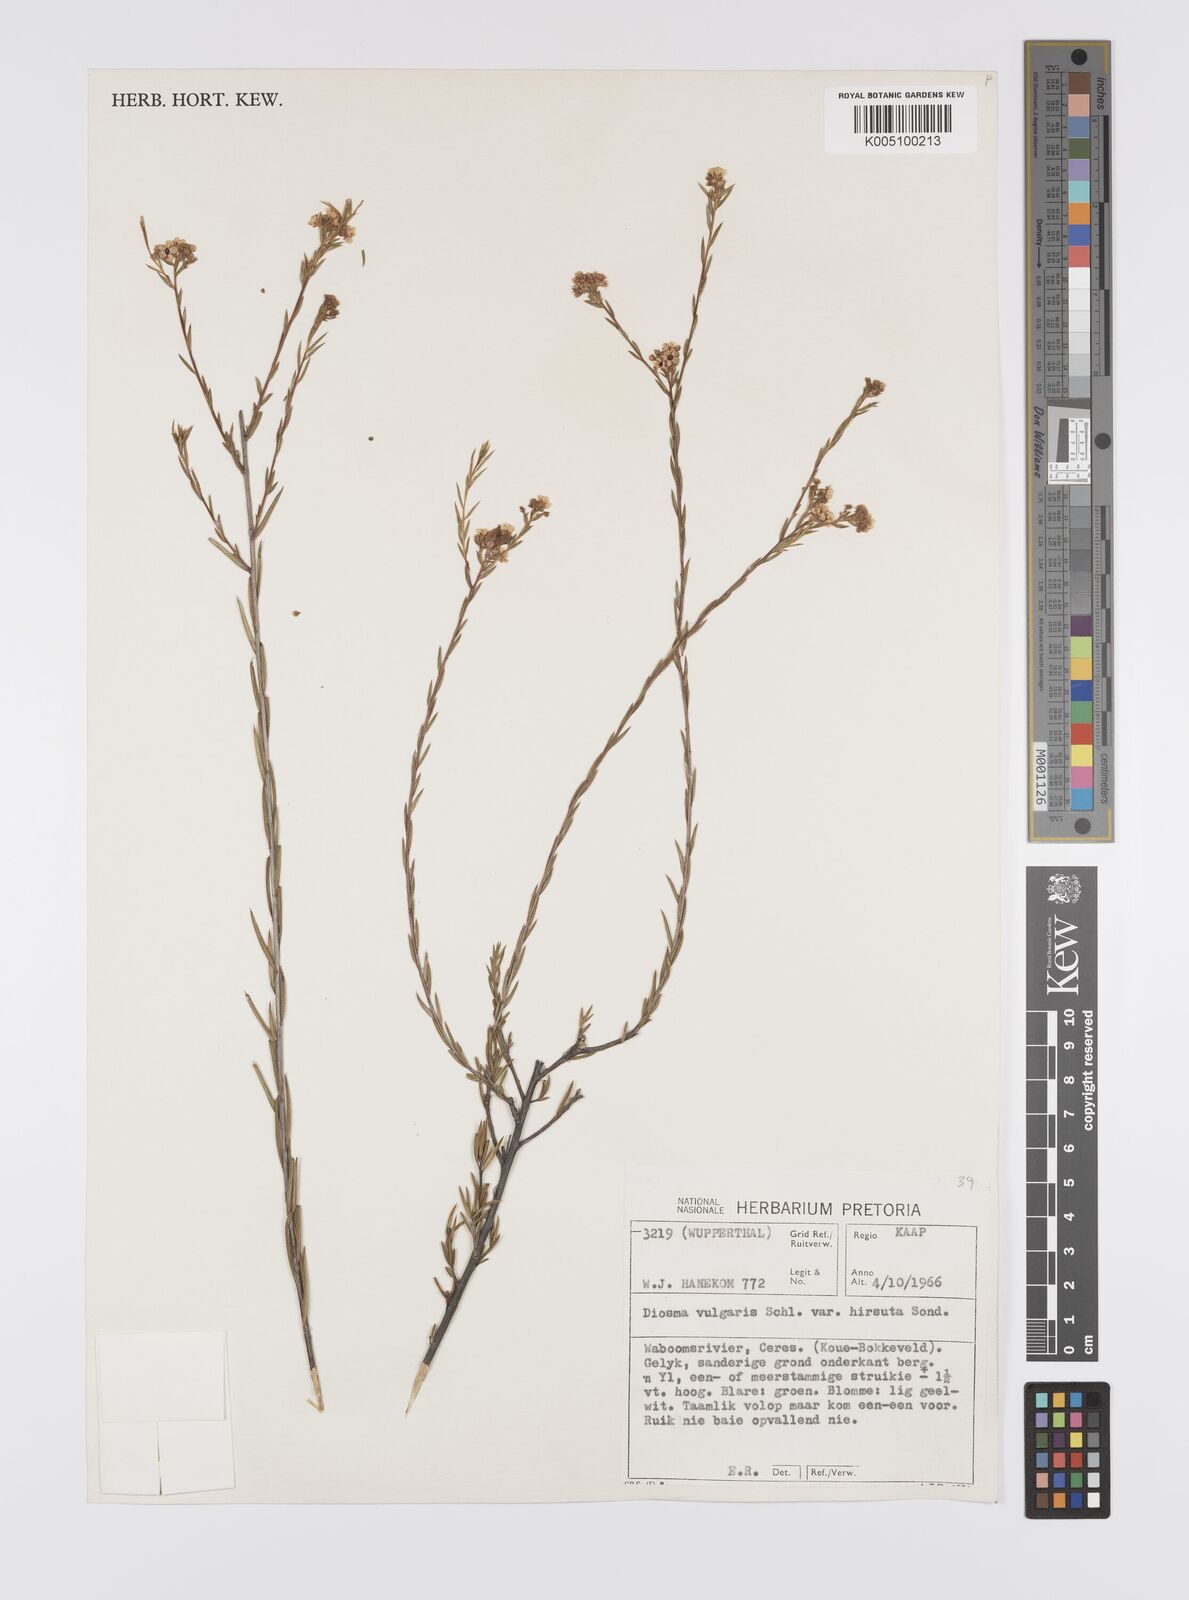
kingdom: Plantae
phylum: Tracheophyta
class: Magnoliopsida
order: Sapindales
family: Rutaceae
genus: Diosma
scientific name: Diosma hirsuta
